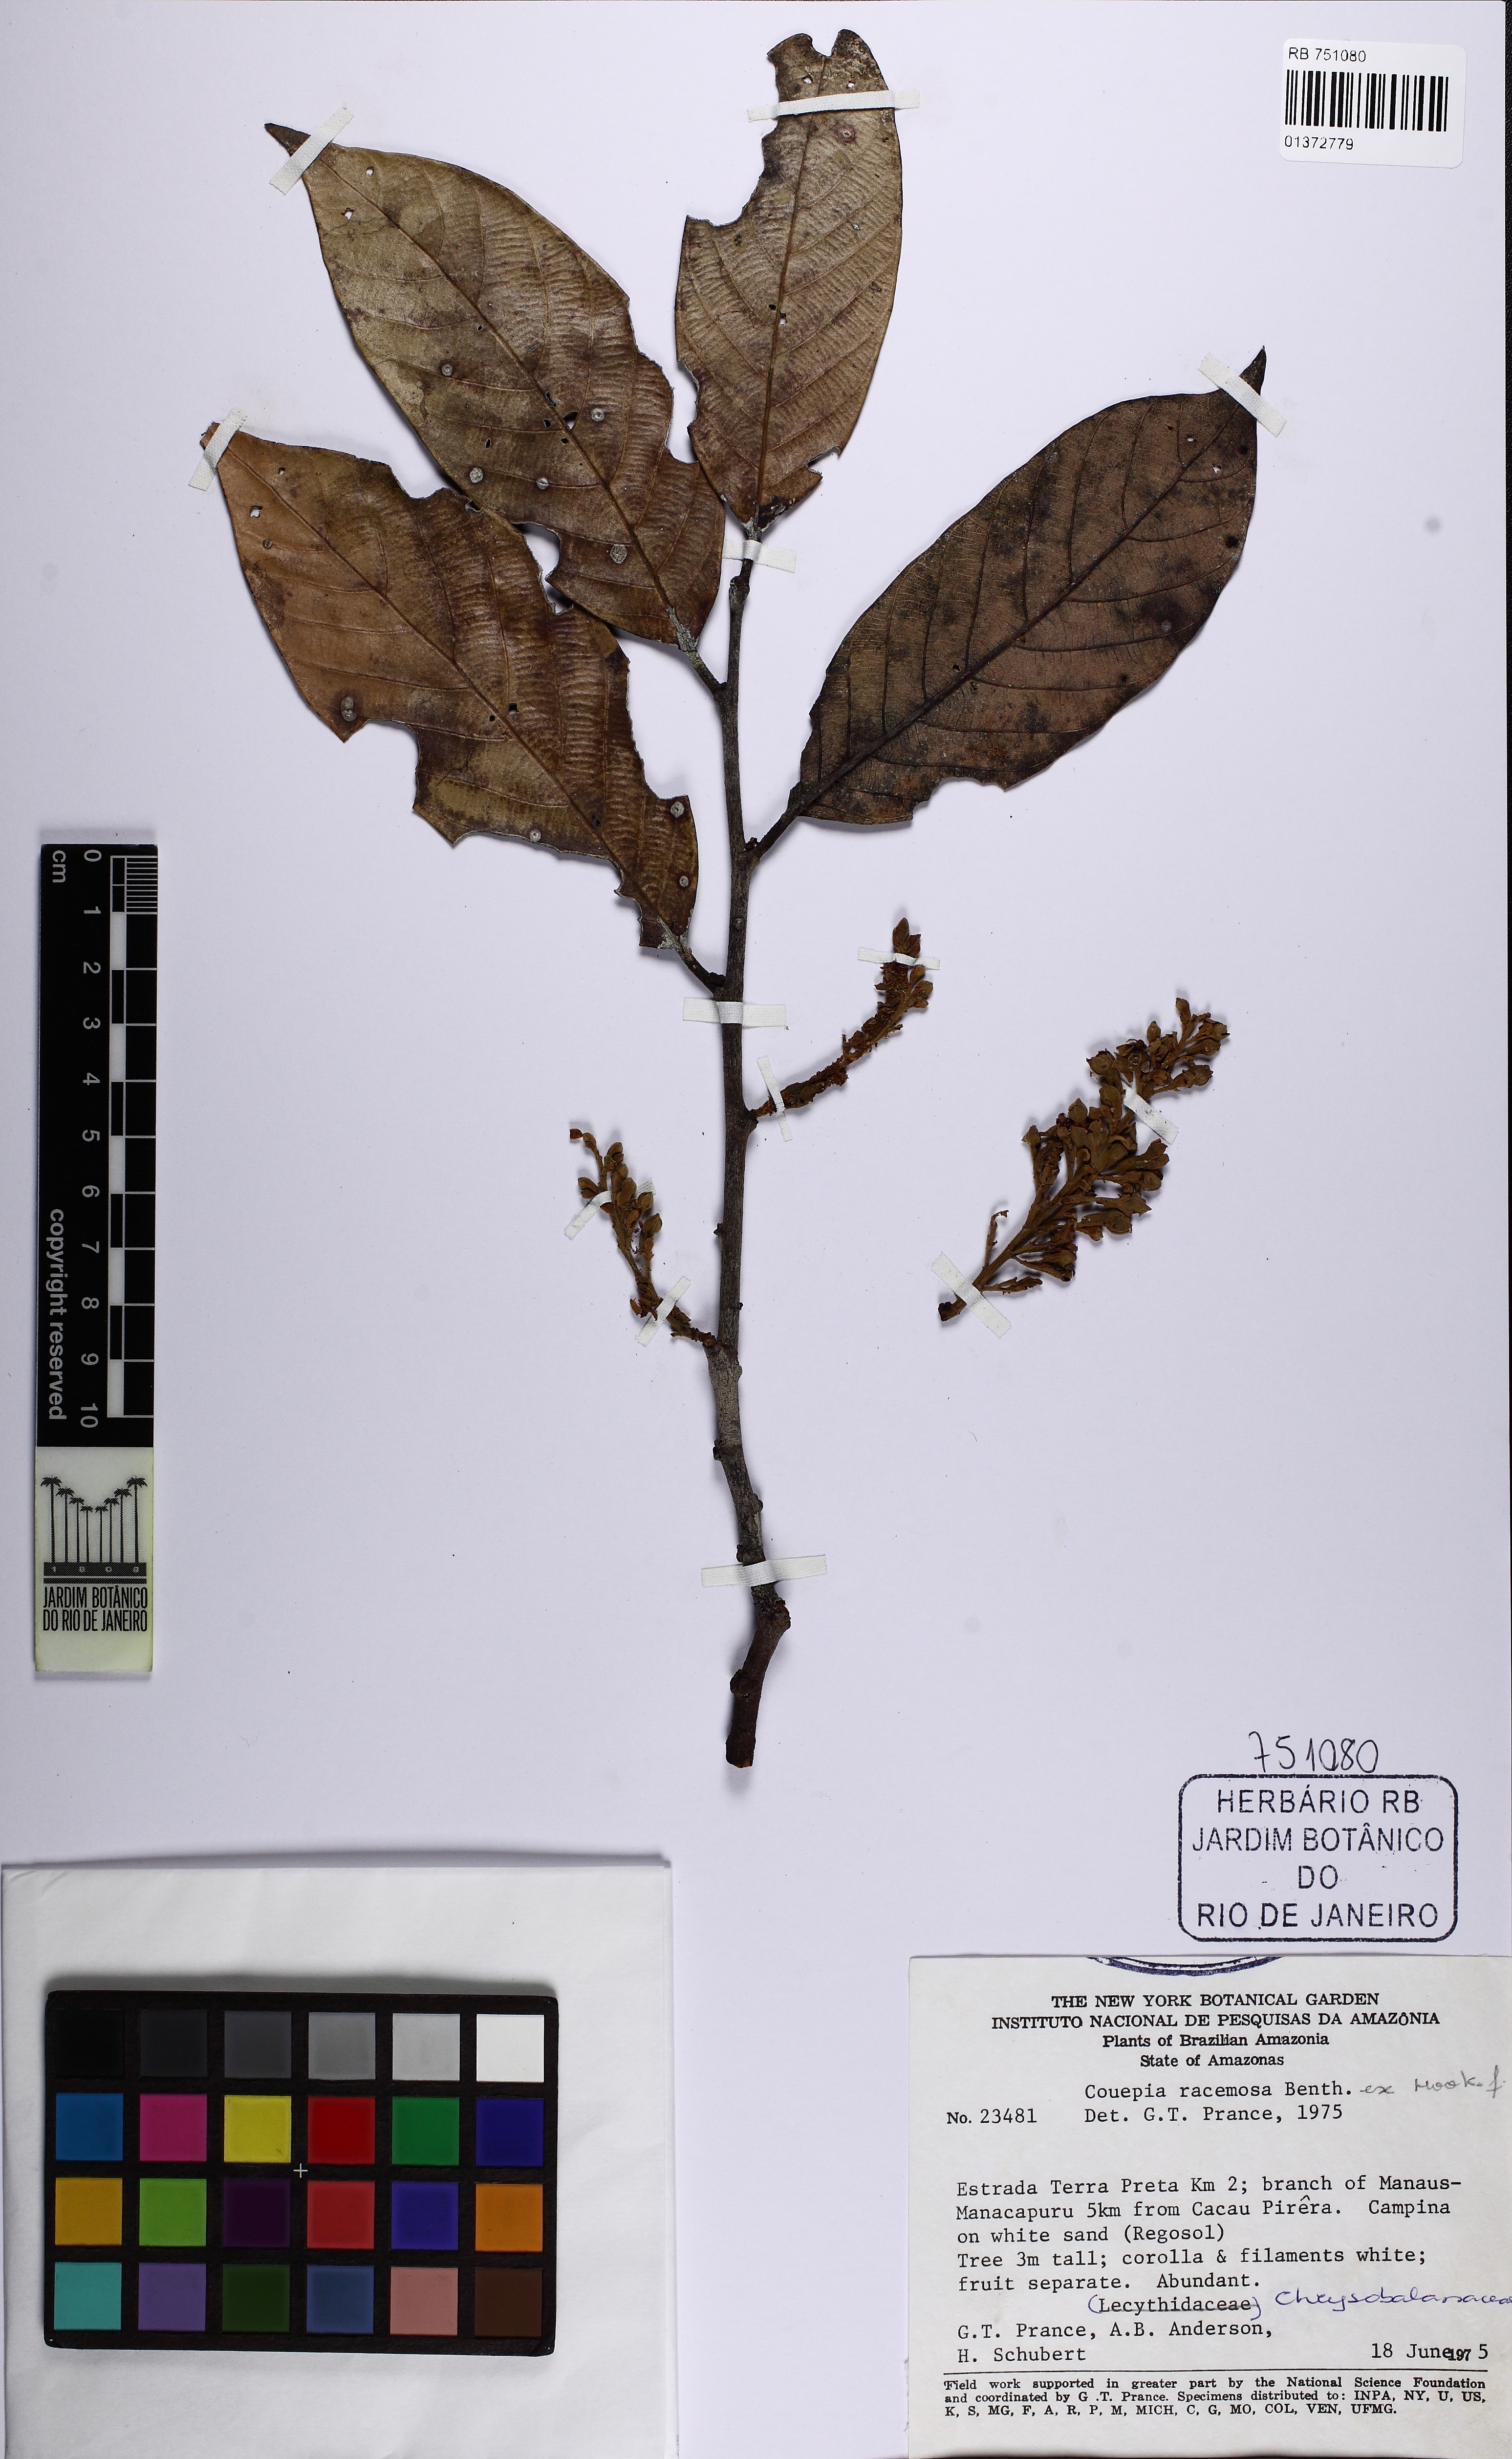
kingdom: Plantae
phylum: Tracheophyta
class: Magnoliopsida
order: Malpighiales
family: Chrysobalanaceae
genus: Gaulettia
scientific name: Gaulettia racemosa
